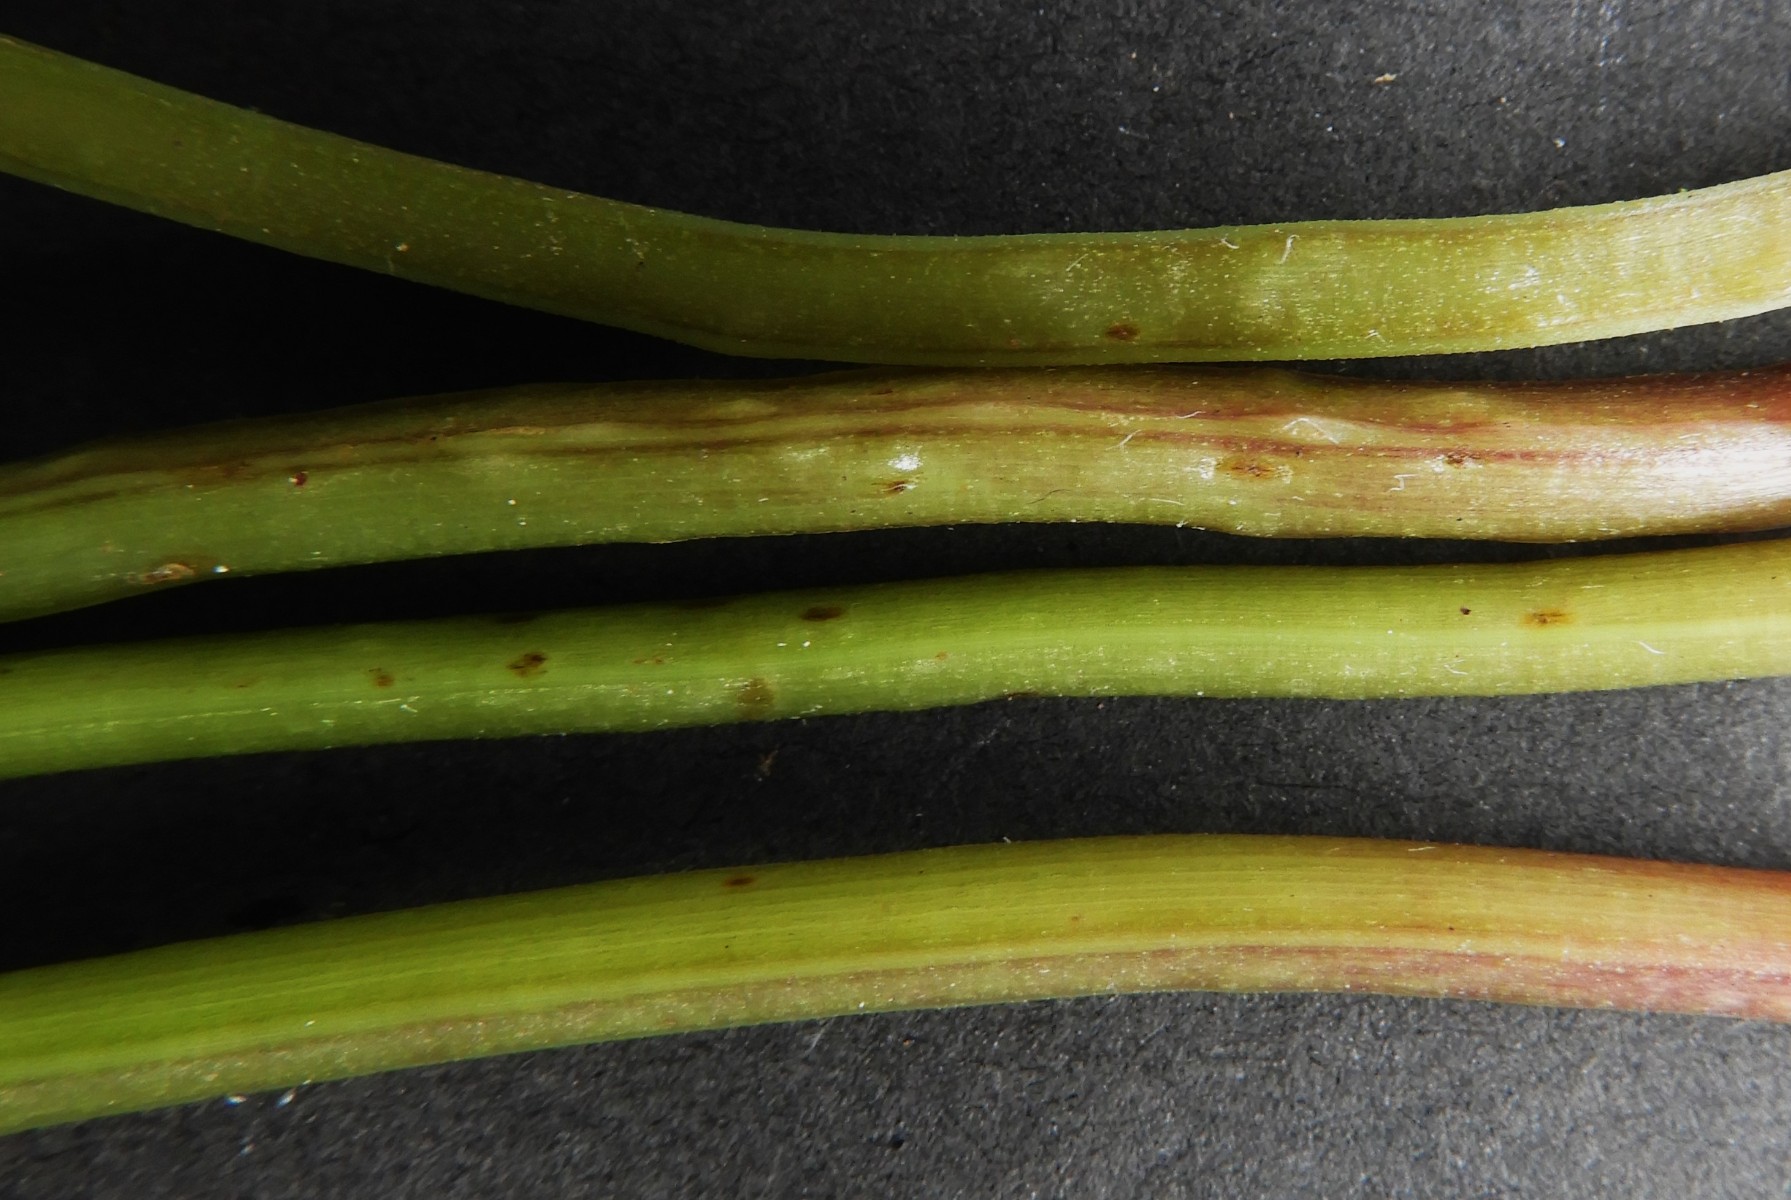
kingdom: Fungi
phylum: Ascomycota
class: Taphrinomycetes
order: Taphrinales
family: Taphrinaceae
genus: Protomyces
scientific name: Protomyces macrosporus
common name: skvalderkål-vablesæk
